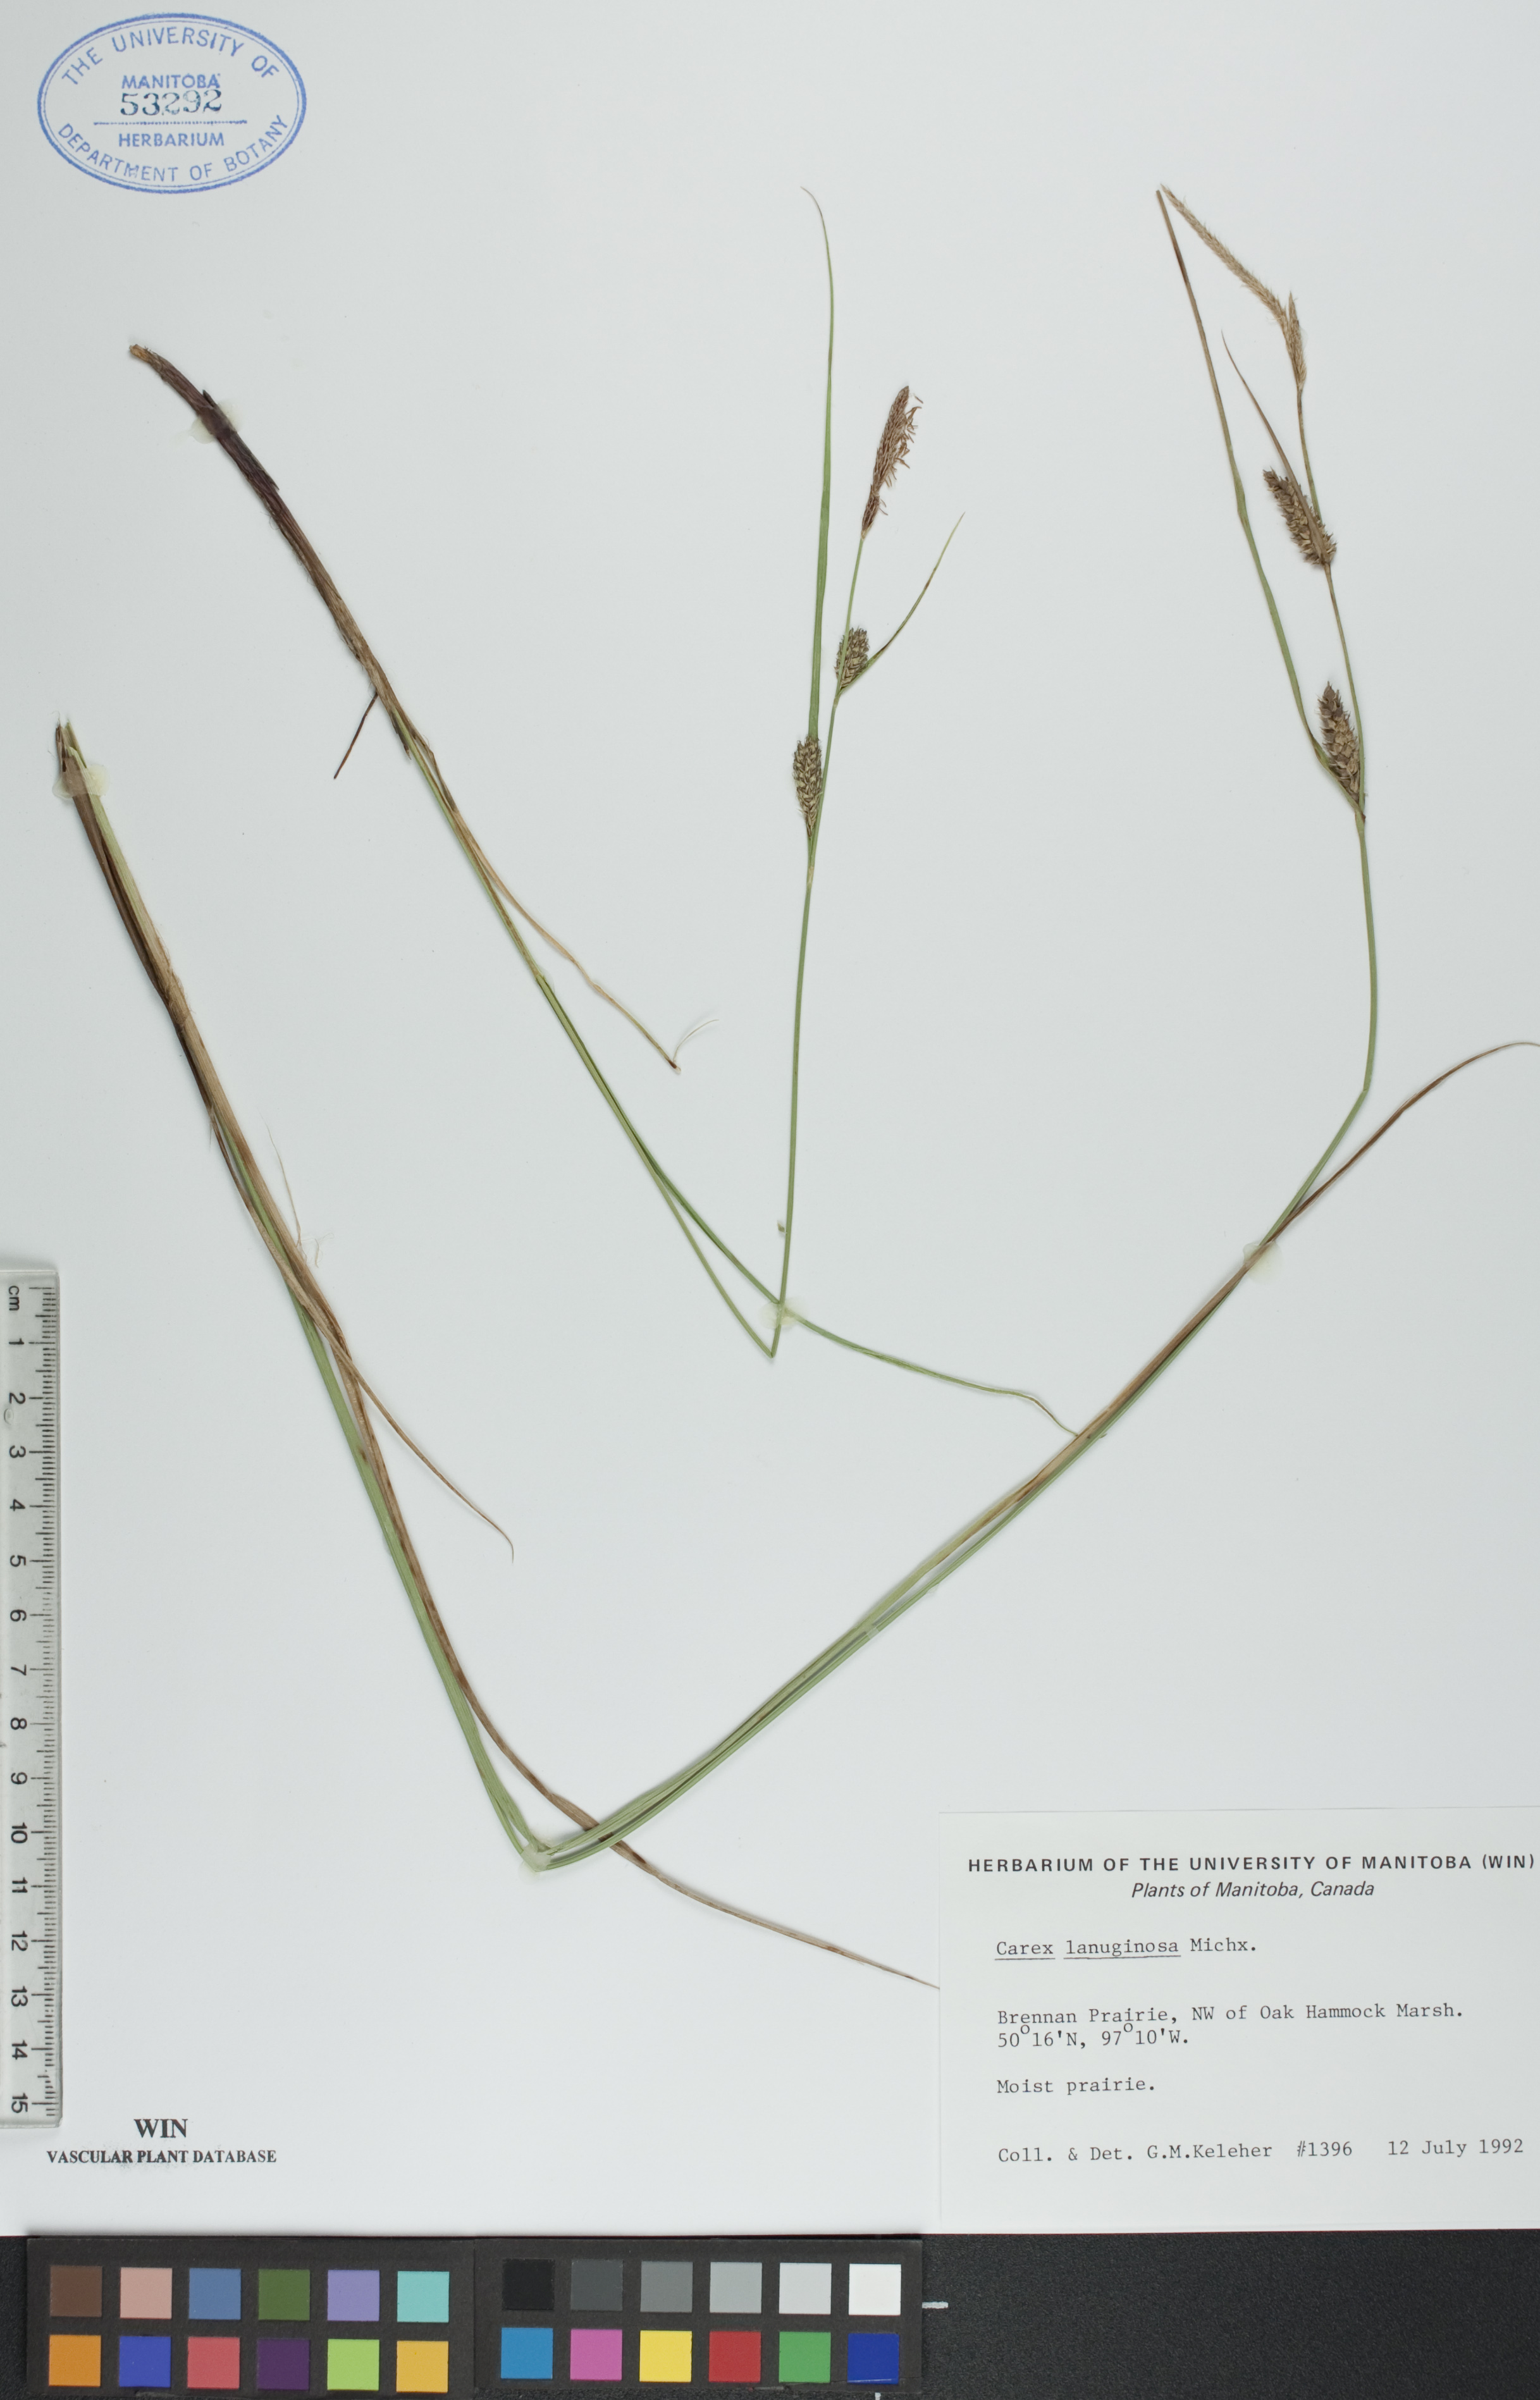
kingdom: Plantae
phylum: Tracheophyta
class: Liliopsida
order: Poales
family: Cyperaceae
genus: Carex
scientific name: Carex lasiocarpa
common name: Slender sedge
